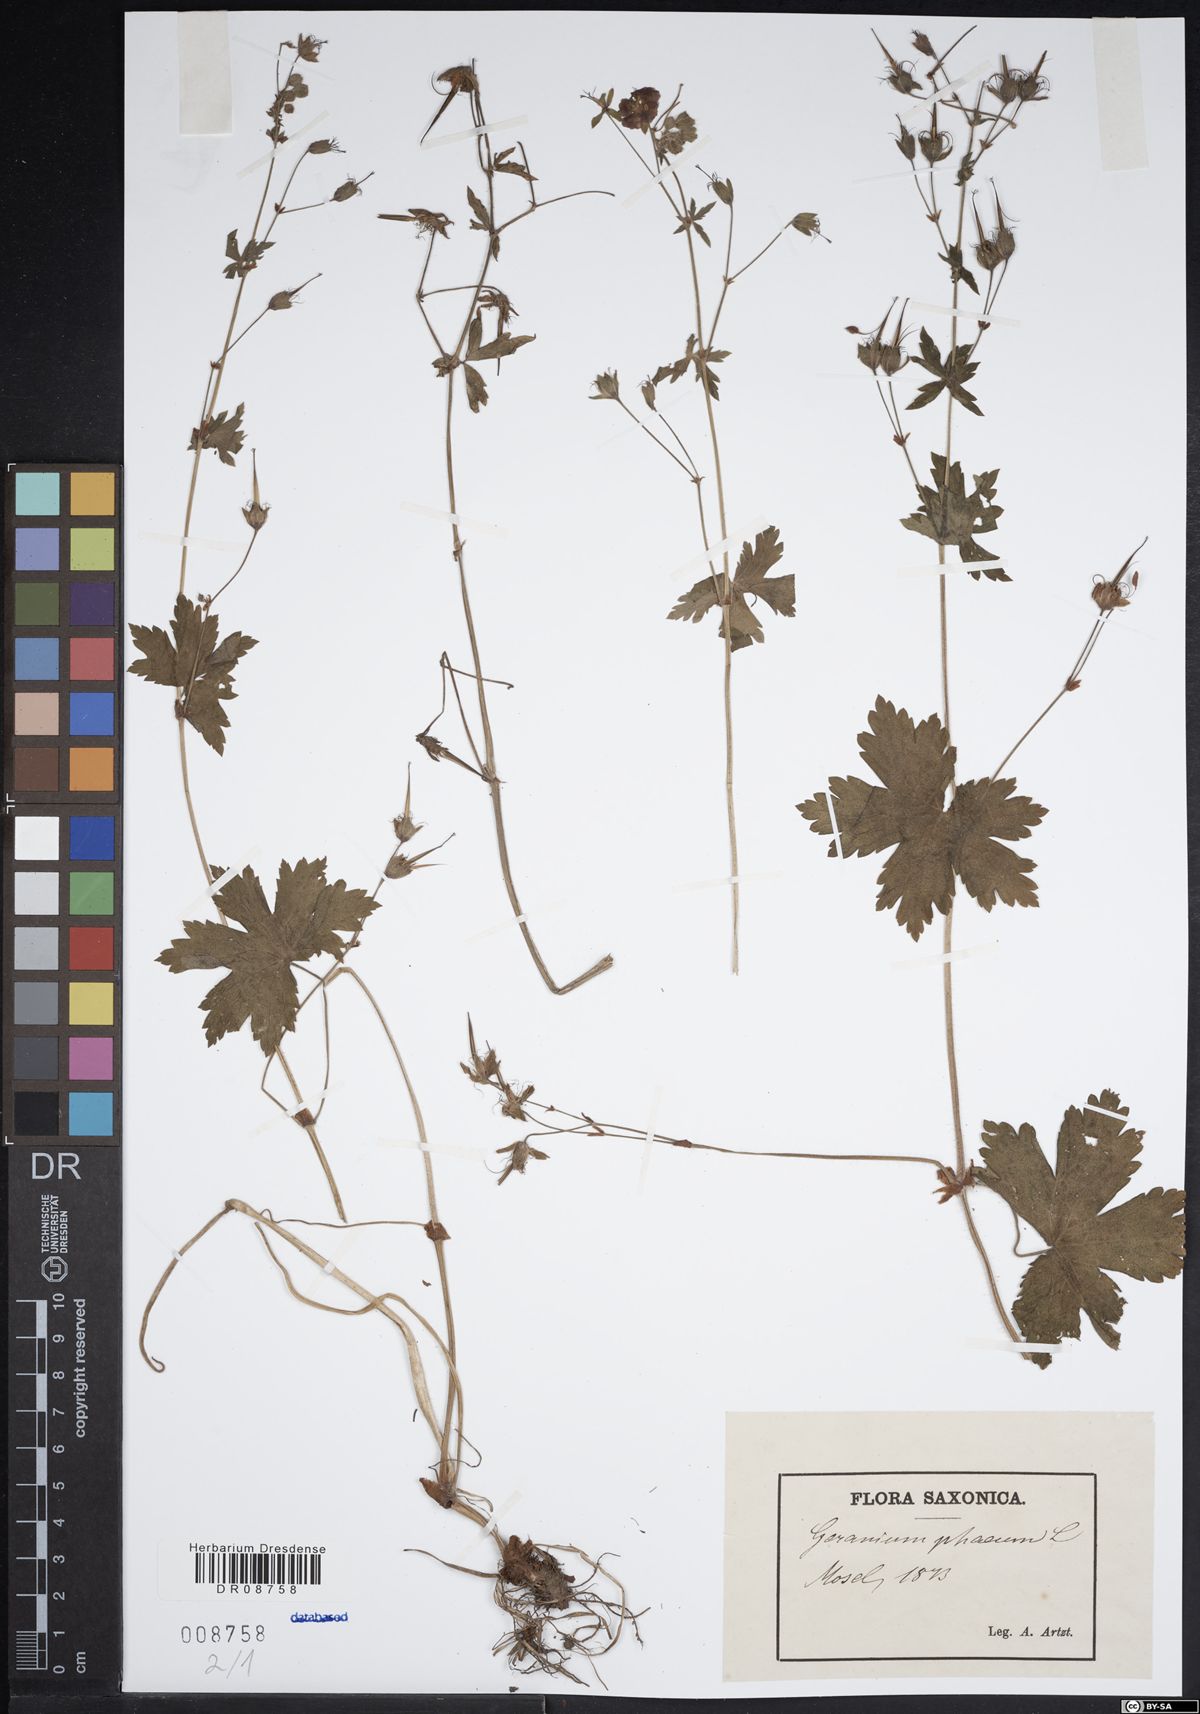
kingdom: Plantae
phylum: Tracheophyta
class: Magnoliopsida
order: Geraniales
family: Geraniaceae
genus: Geranium
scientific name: Geranium phaeum
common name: Dusky crane's-bill
